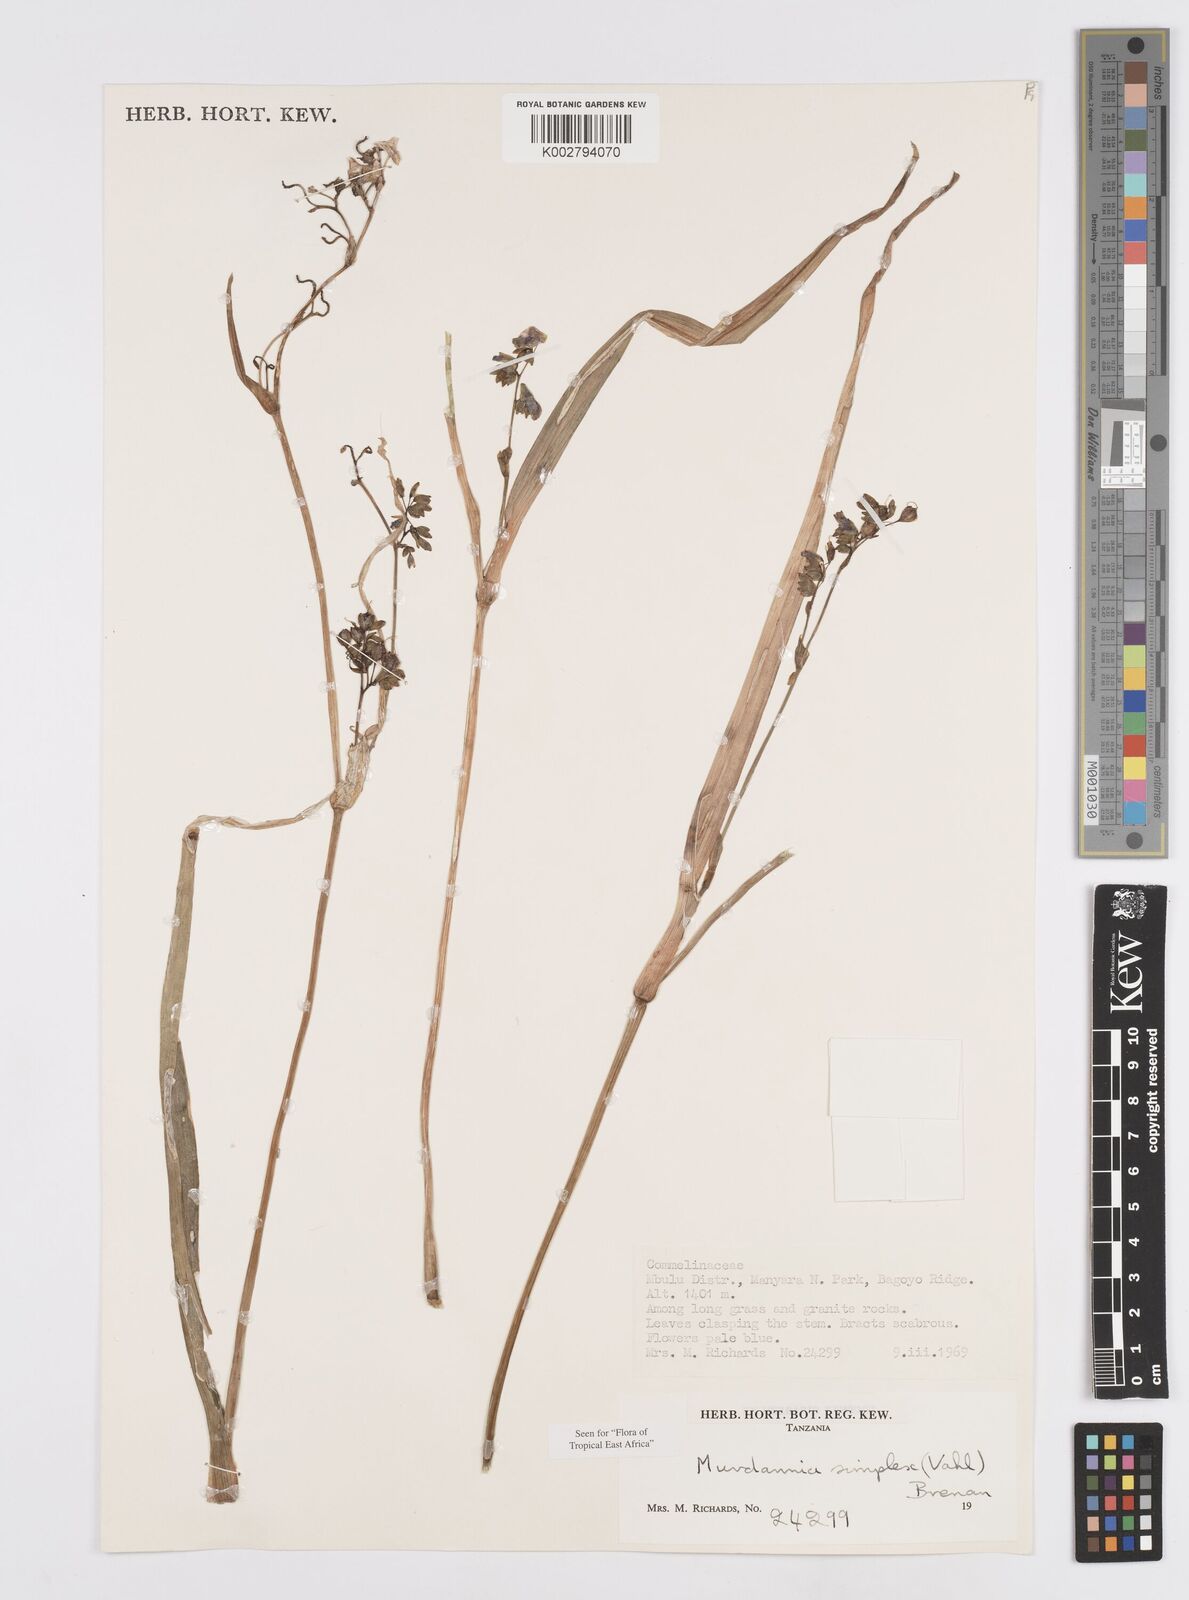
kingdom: Plantae
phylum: Tracheophyta
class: Liliopsida
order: Commelinales
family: Commelinaceae
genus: Murdannia
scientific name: Murdannia simplex
